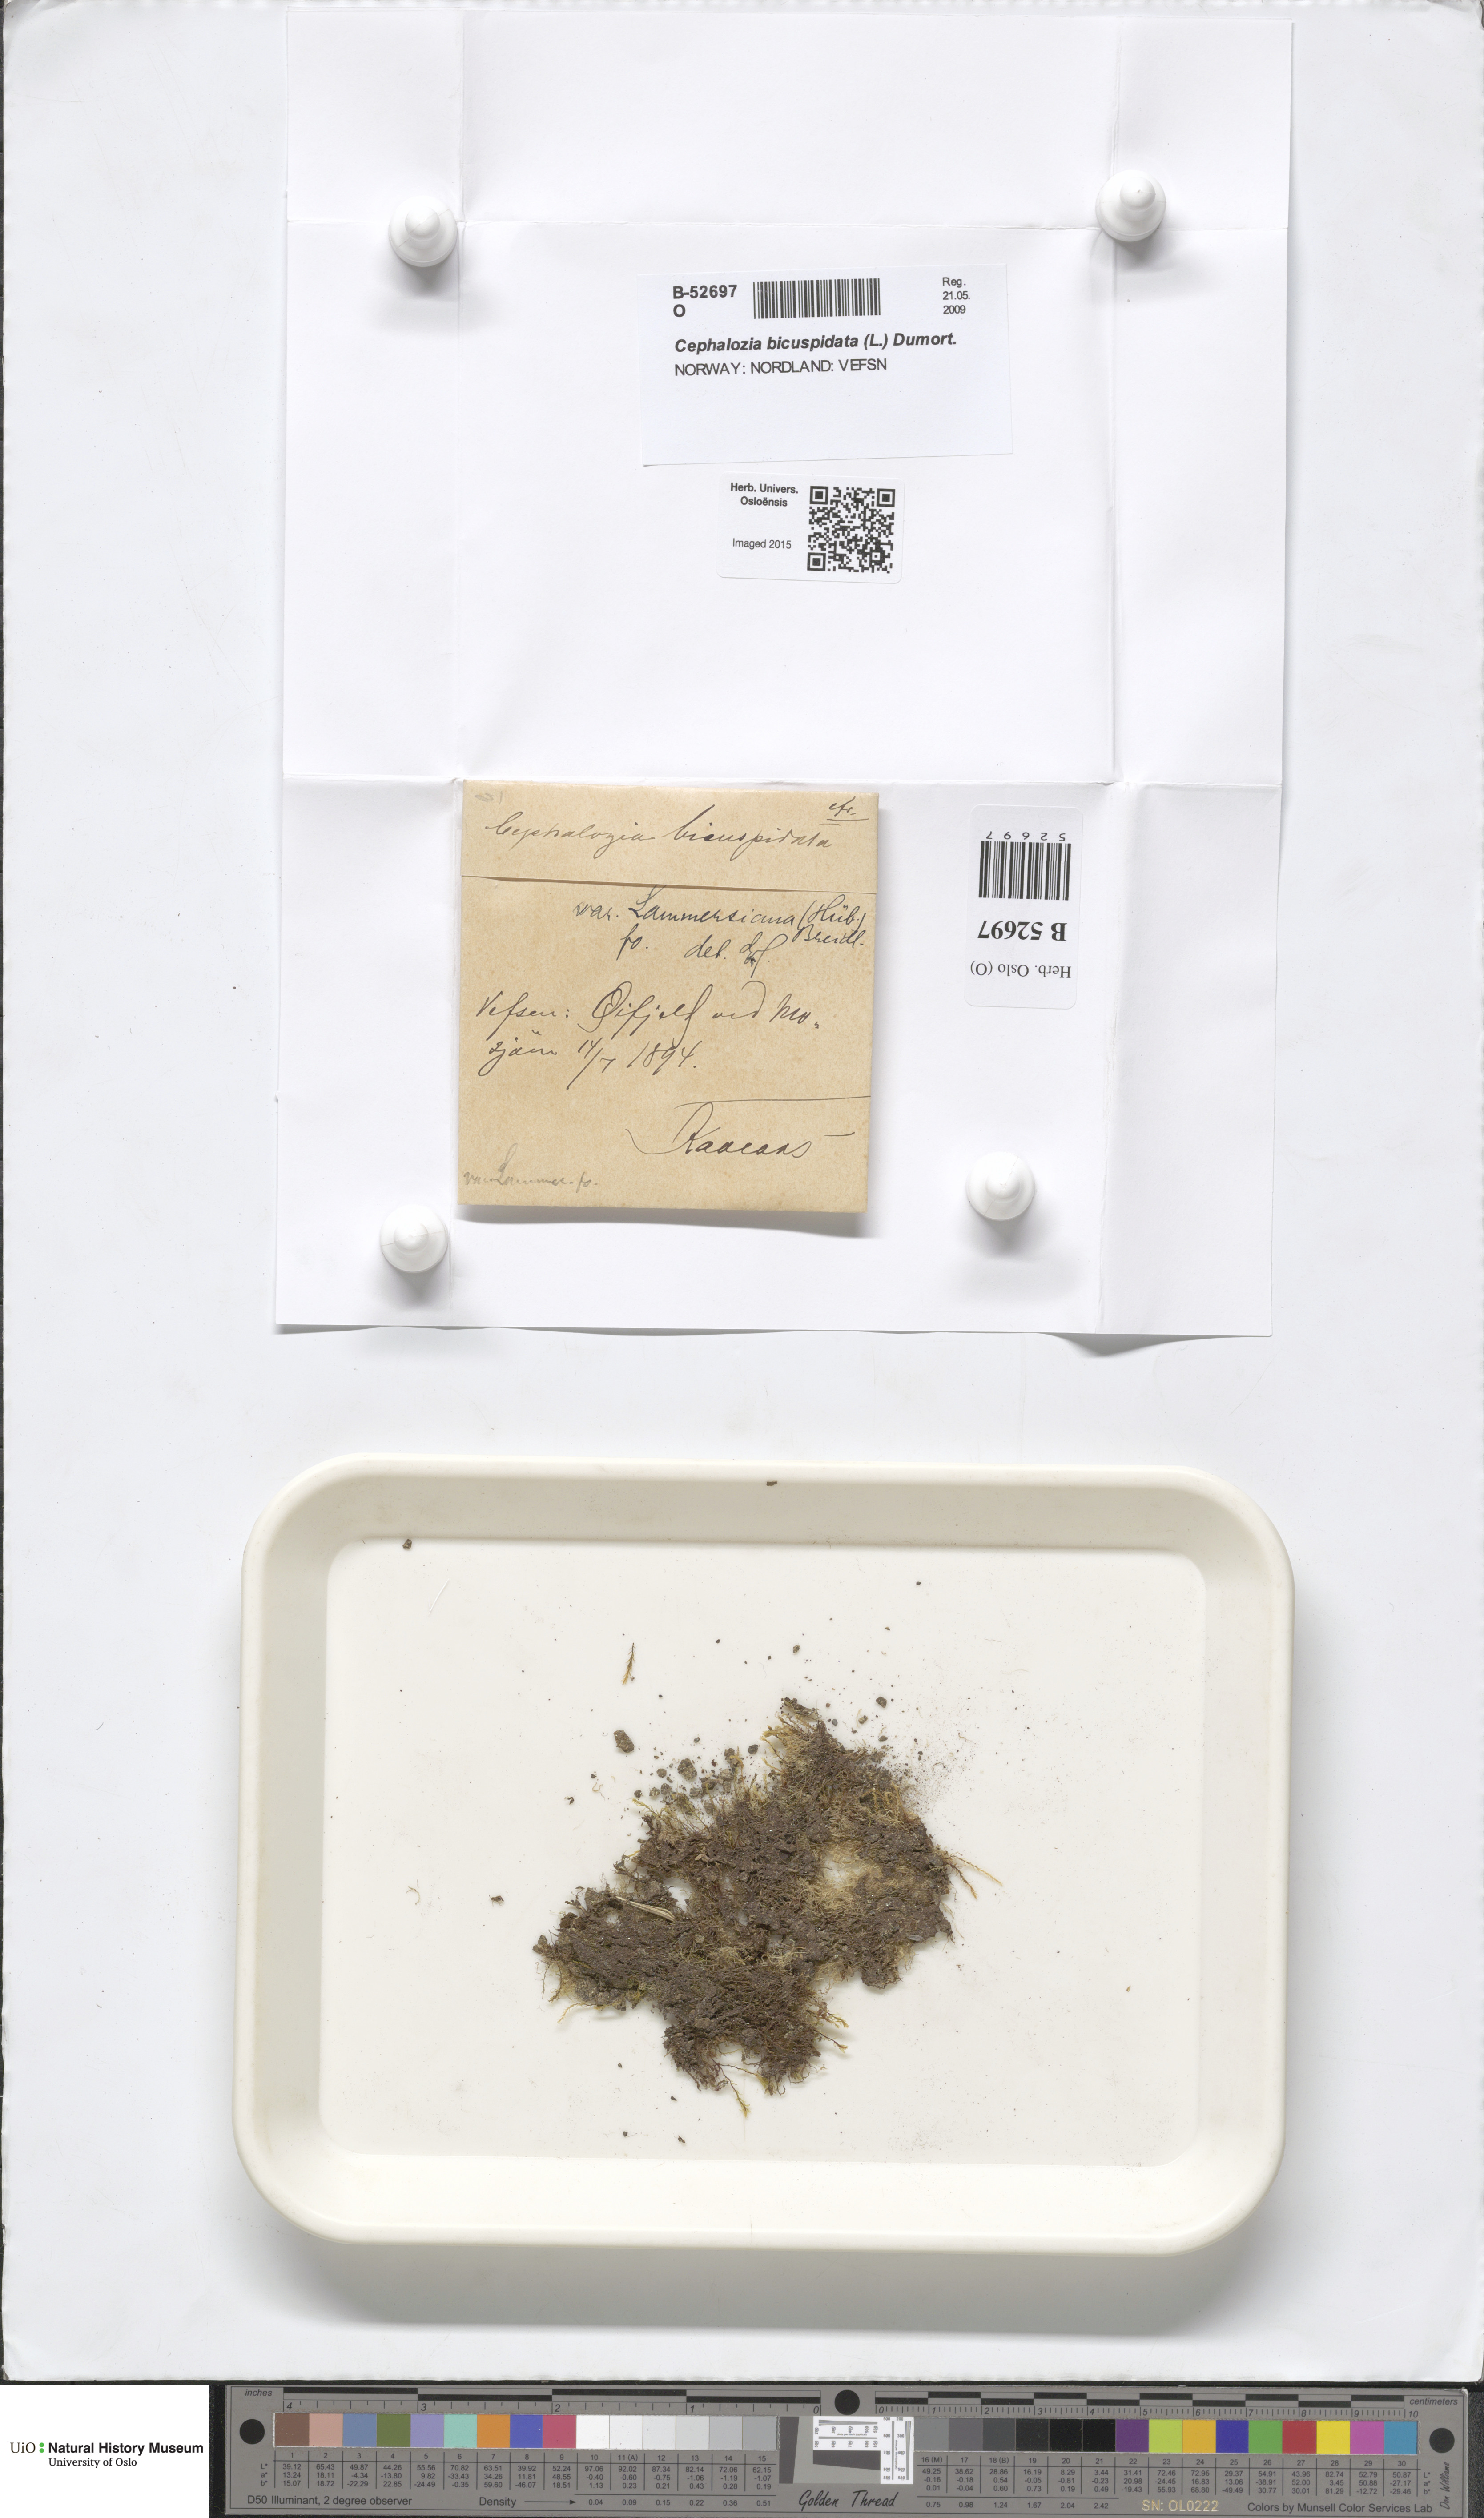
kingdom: Plantae
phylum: Marchantiophyta
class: Jungermanniopsida
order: Jungermanniales
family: Cephaloziaceae
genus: Cephalozia
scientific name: Cephalozia bicuspidata
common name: Two-horned pincerwort
